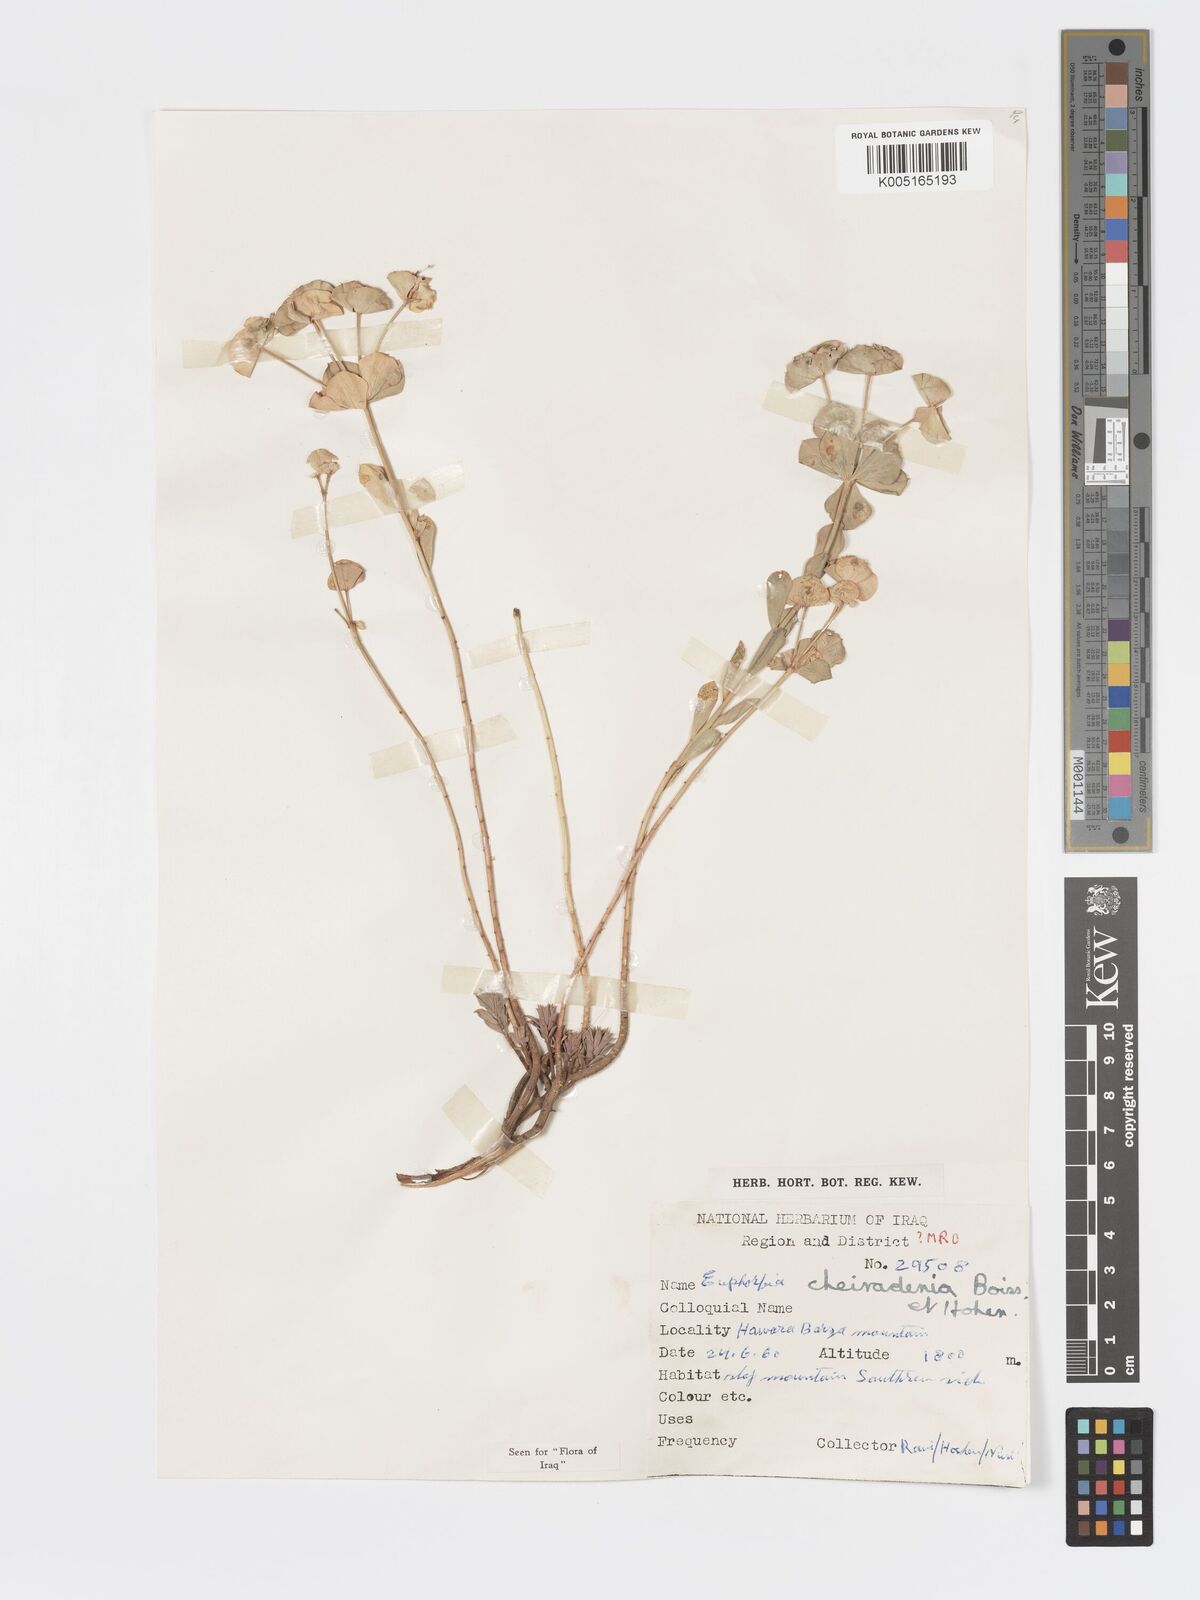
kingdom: Plantae
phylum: Tracheophyta
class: Magnoliopsida
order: Malpighiales
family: Euphorbiaceae
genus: Euphorbia
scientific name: Euphorbia cheiradenia
